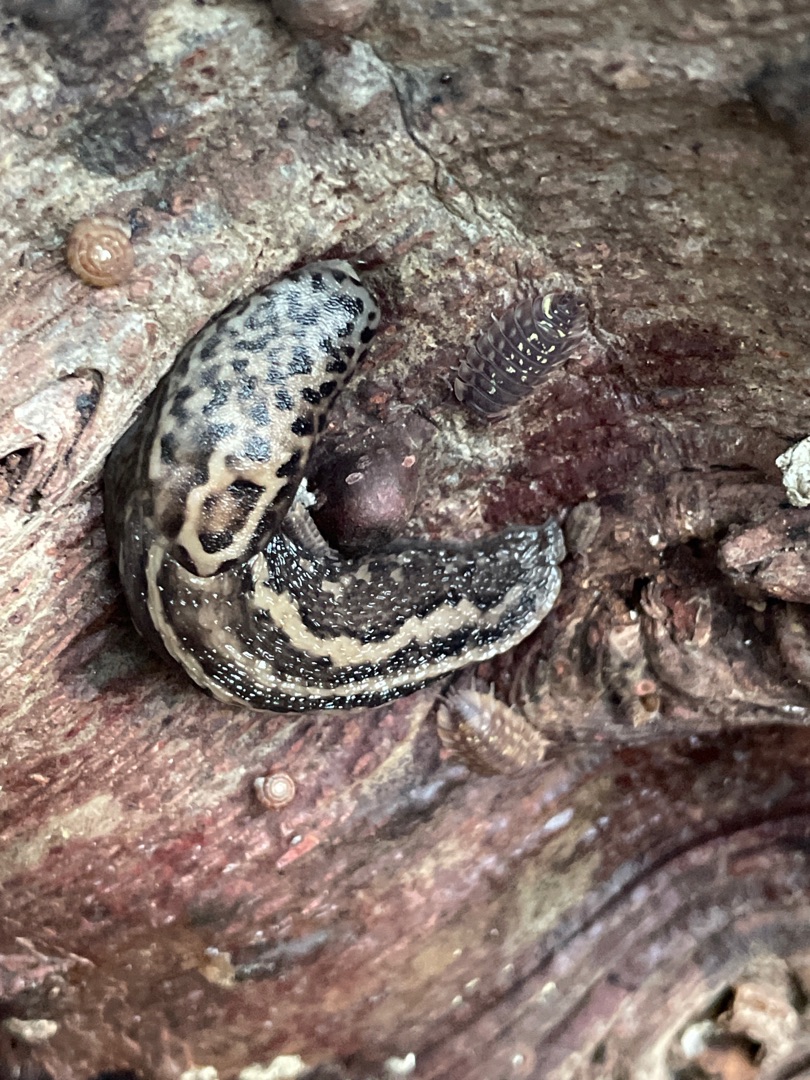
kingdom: Animalia
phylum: Mollusca
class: Gastropoda
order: Stylommatophora
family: Limacidae
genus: Limax
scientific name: Limax maximus
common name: Pantersnegl
